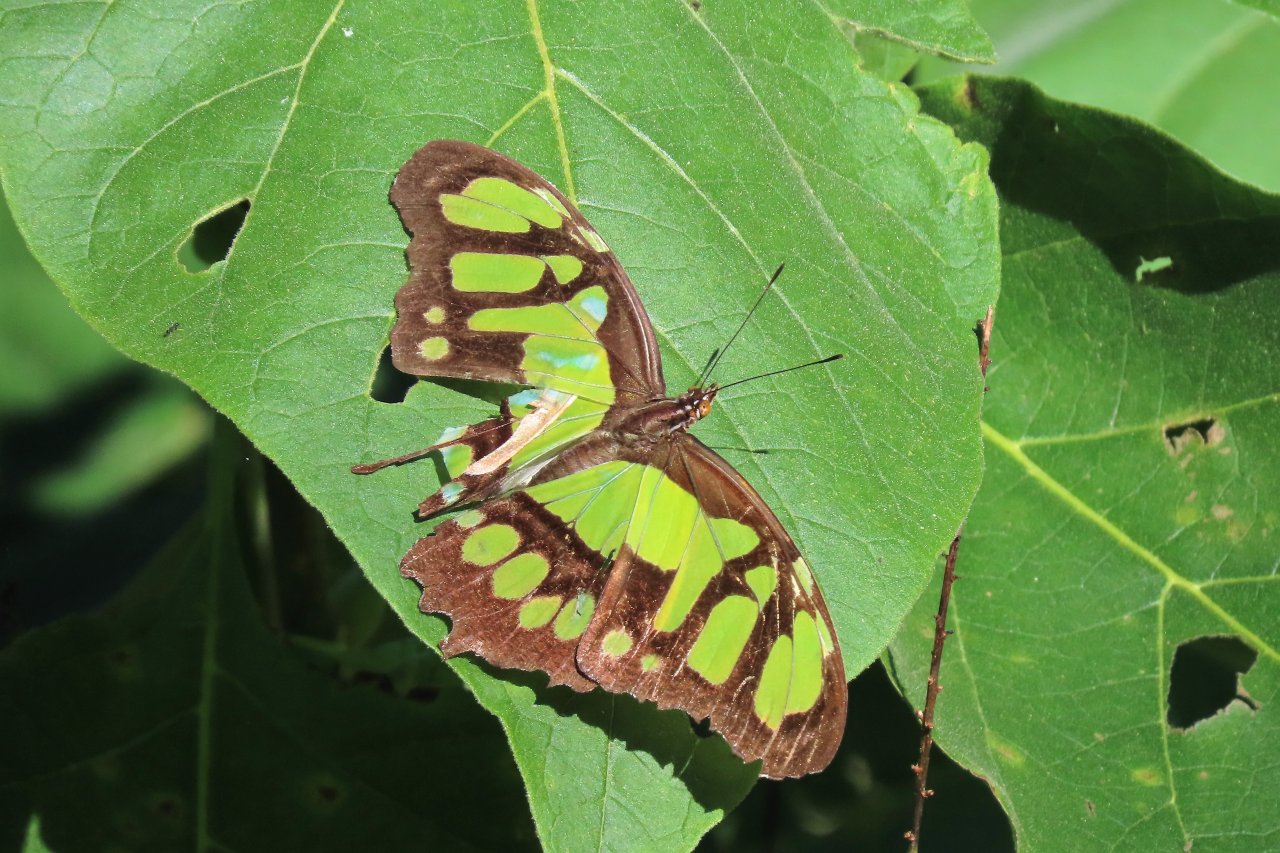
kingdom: Animalia
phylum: Arthropoda
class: Insecta
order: Lepidoptera
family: Nymphalidae
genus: Siproeta
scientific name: Siproeta stelenes
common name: Malachite
